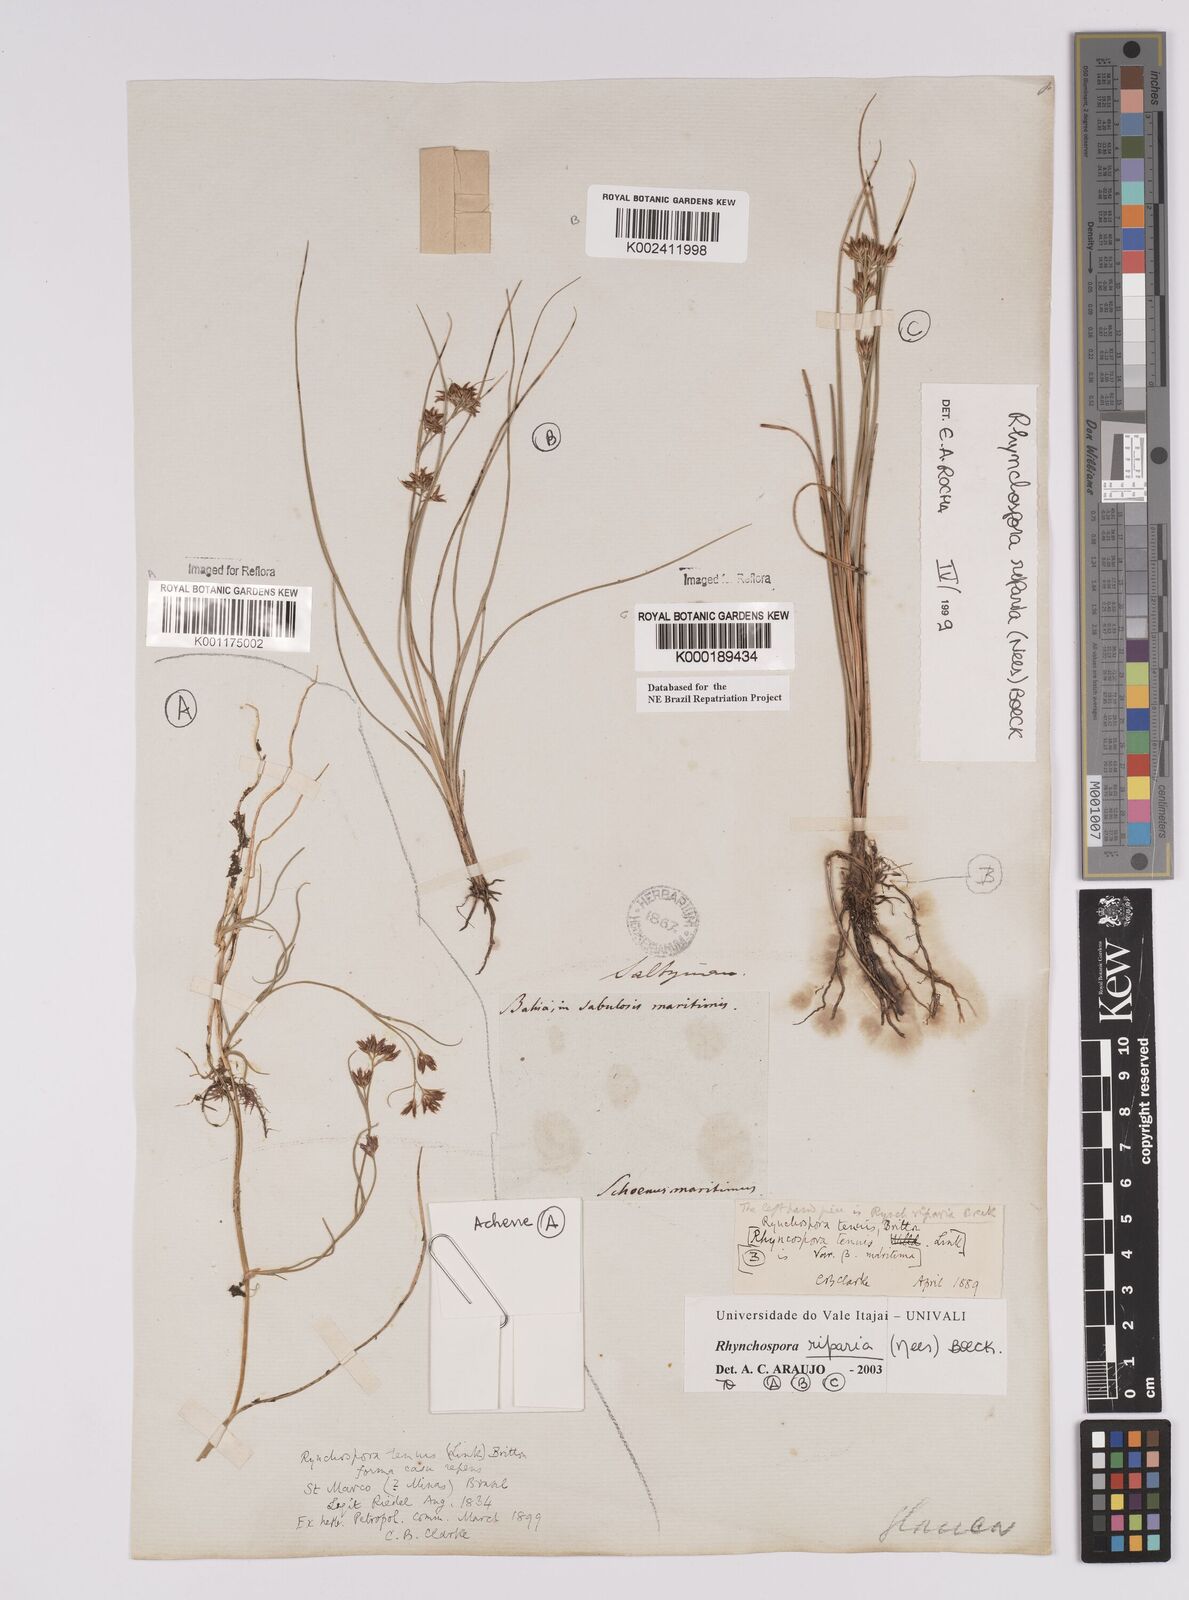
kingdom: Plantae
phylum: Tracheophyta
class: Liliopsida
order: Poales
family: Cyperaceae
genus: Rhynchospora
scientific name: Rhynchospora riparia
